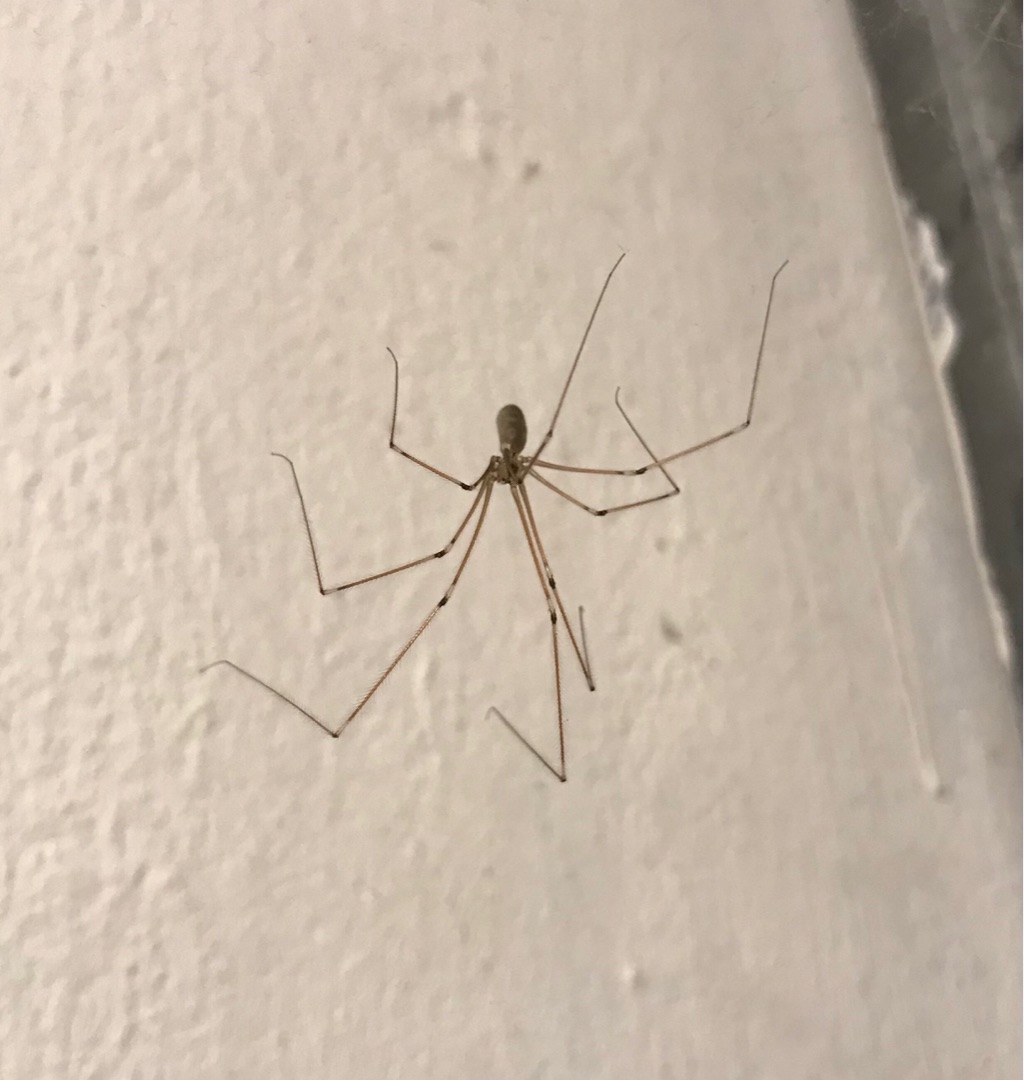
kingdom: Animalia
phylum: Arthropoda
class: Arachnida
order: Araneae
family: Pholcidae
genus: Pholcus
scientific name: Pholcus phalangioides
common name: Mejeredderkop
